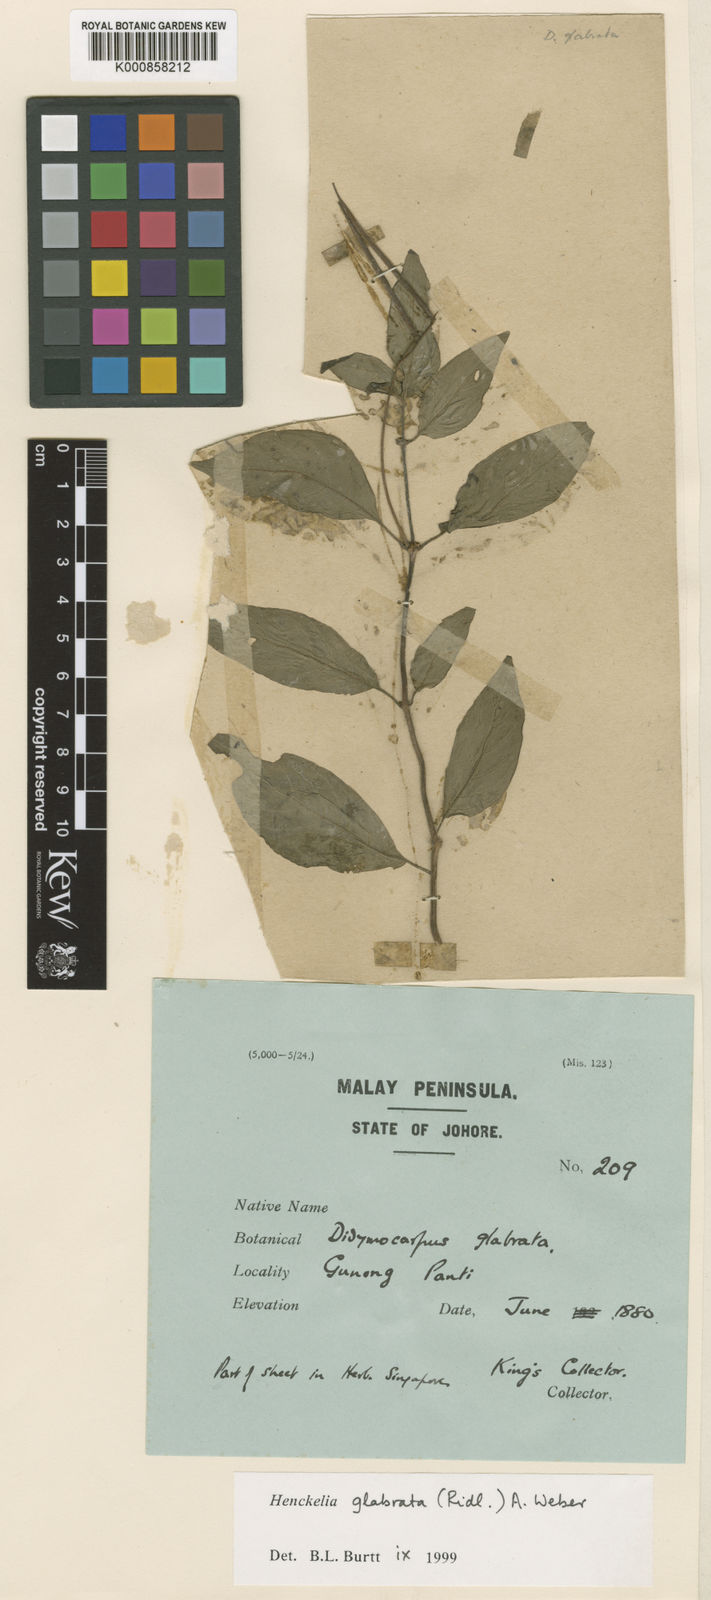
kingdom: Plantae
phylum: Tracheophyta
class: Magnoliopsida
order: Lamiales
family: Gesneriaceae
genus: Codonoboea
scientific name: Codonoboea glabrata
